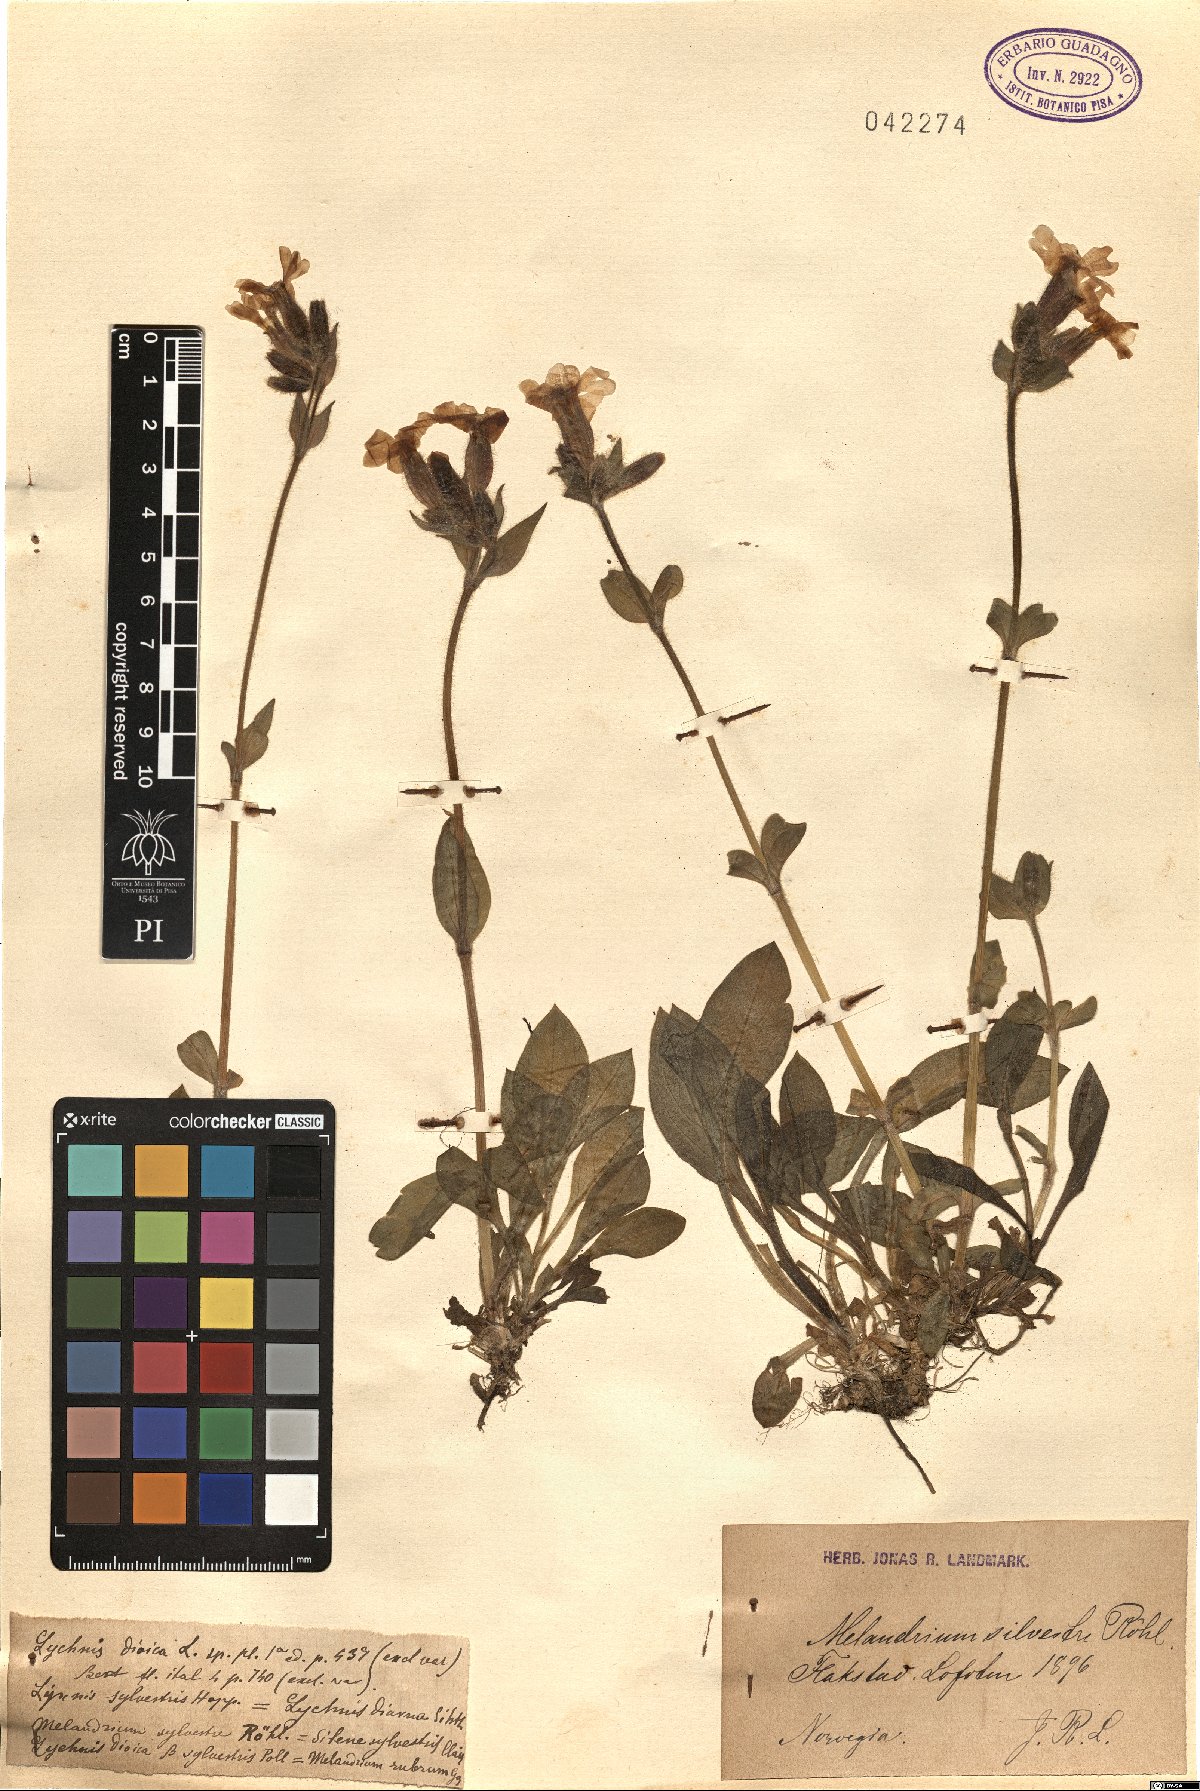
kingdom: Plantae
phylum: Tracheophyta
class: Magnoliopsida
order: Caryophyllales
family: Caryophyllaceae
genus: Silene
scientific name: Silene dioica
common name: Red campion
